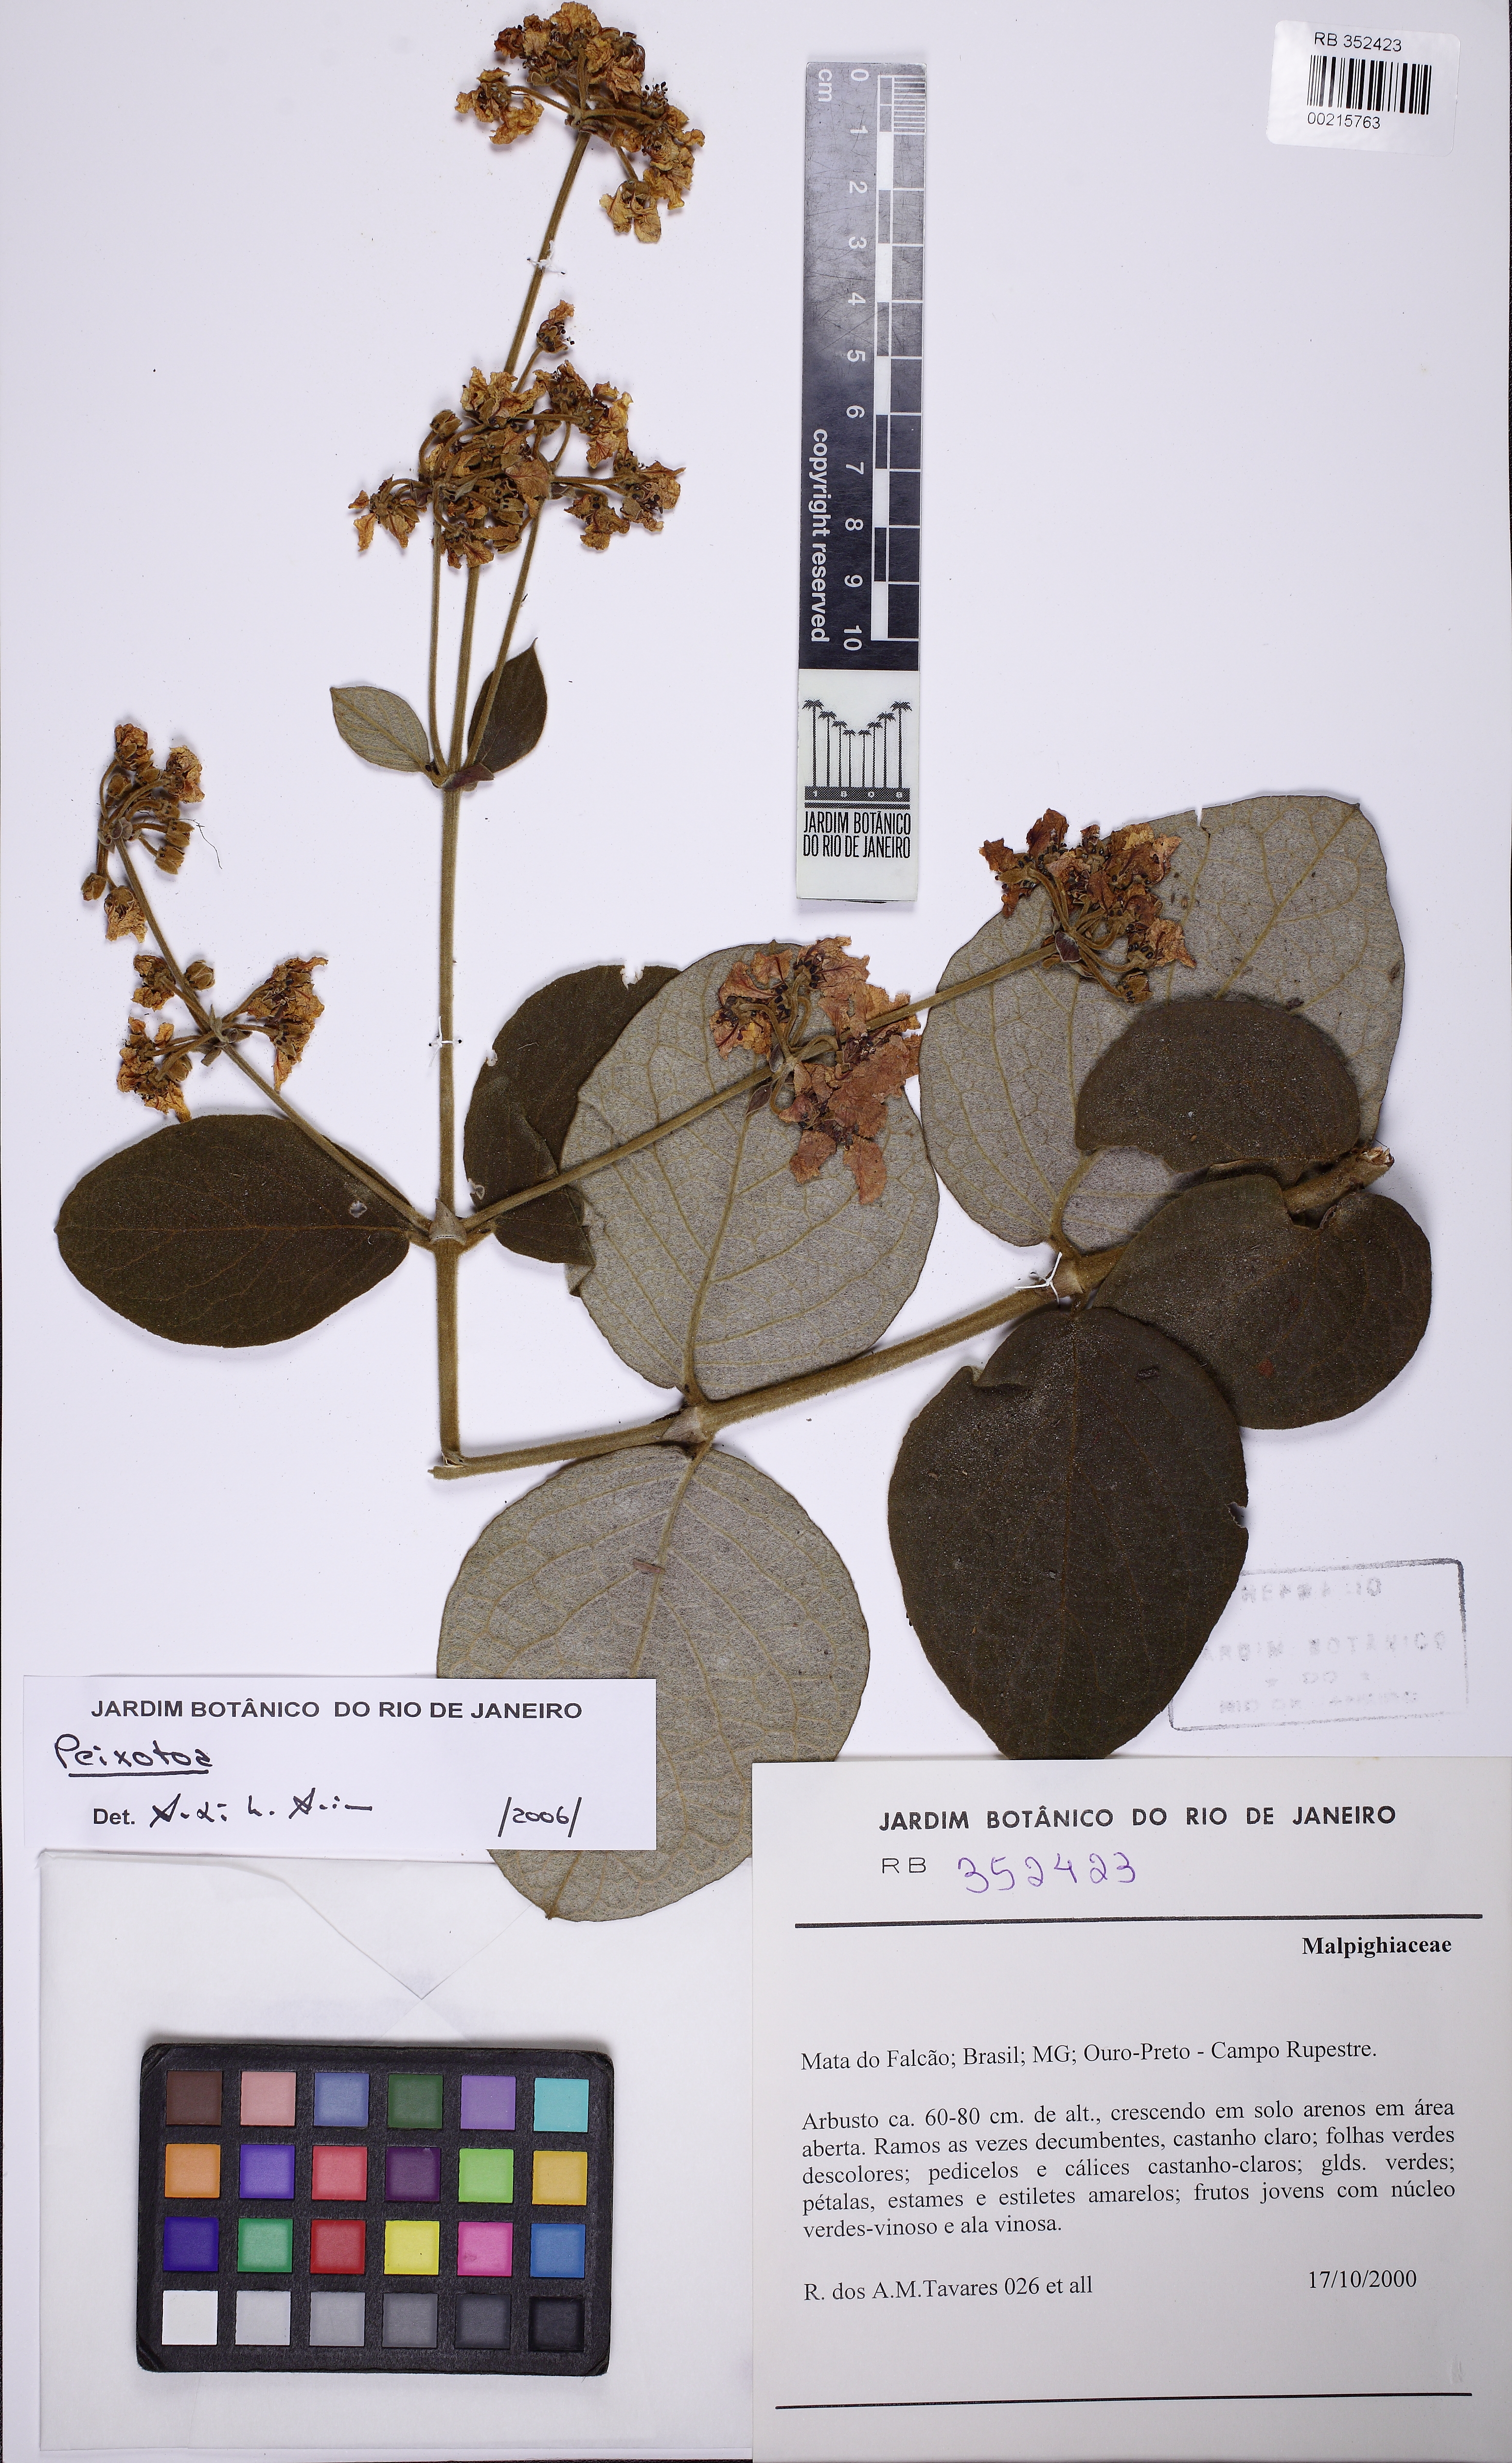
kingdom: Plantae
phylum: Tracheophyta
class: Magnoliopsida
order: Malpighiales
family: Malpighiaceae
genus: Peixotoa
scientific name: Peixotoa
